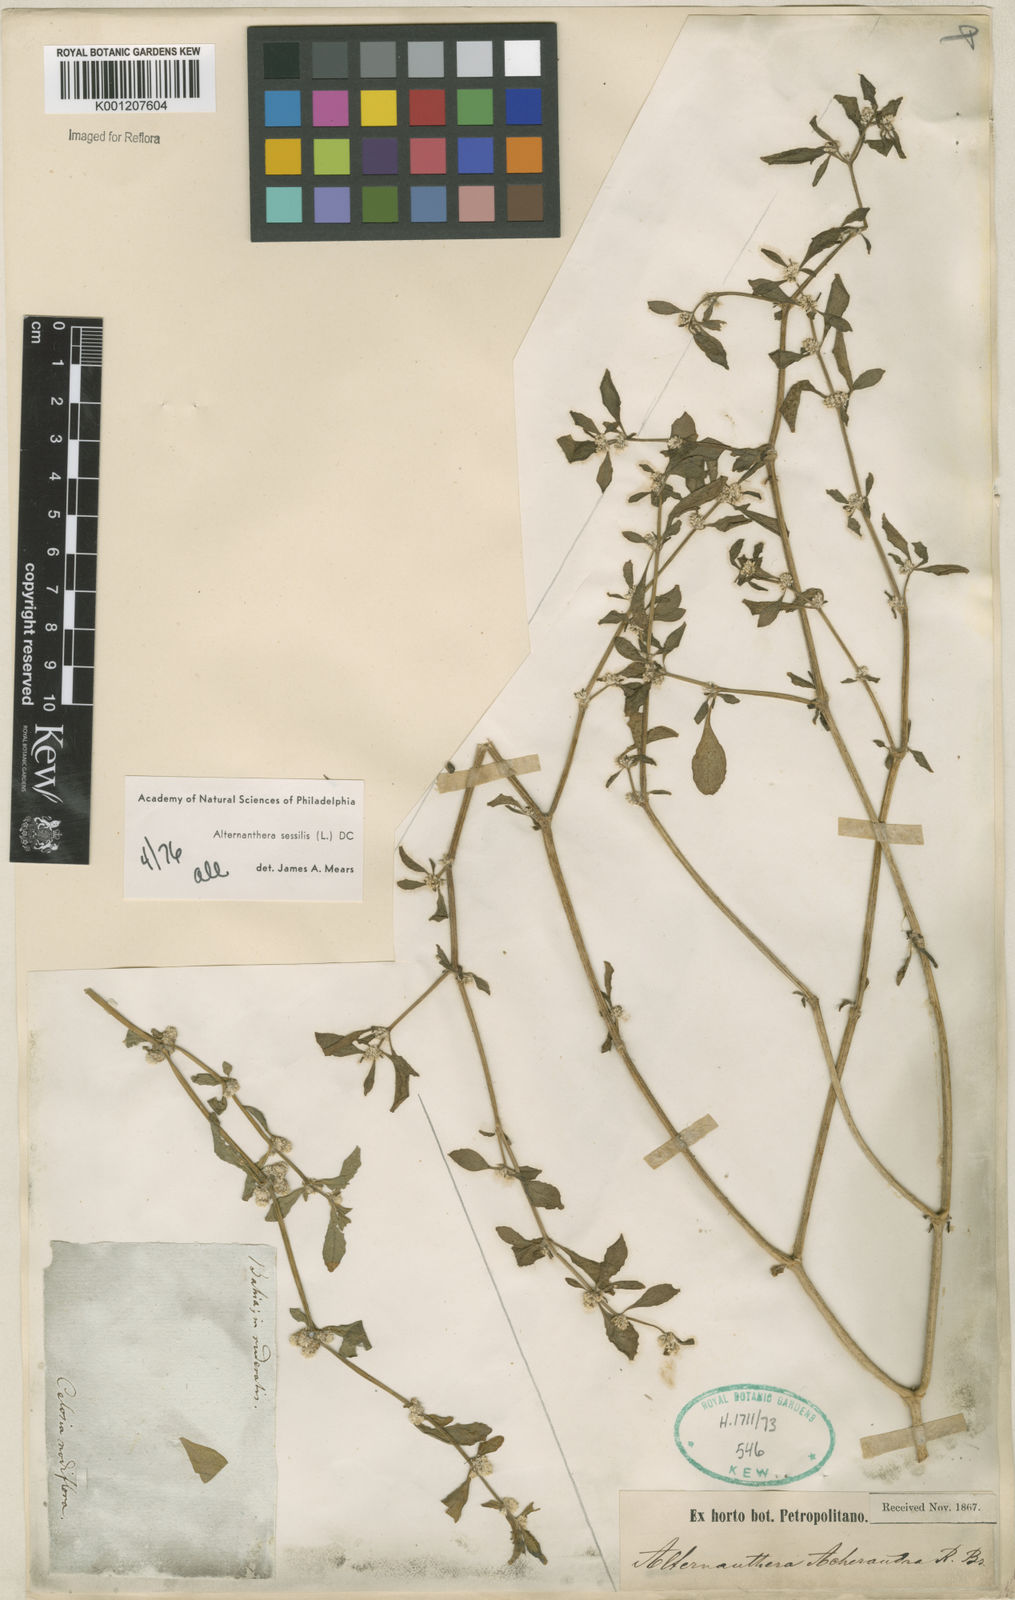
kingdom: Plantae
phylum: Tracheophyta
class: Magnoliopsida
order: Caryophyllales
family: Amaranthaceae
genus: Alternanthera
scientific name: Alternanthera
